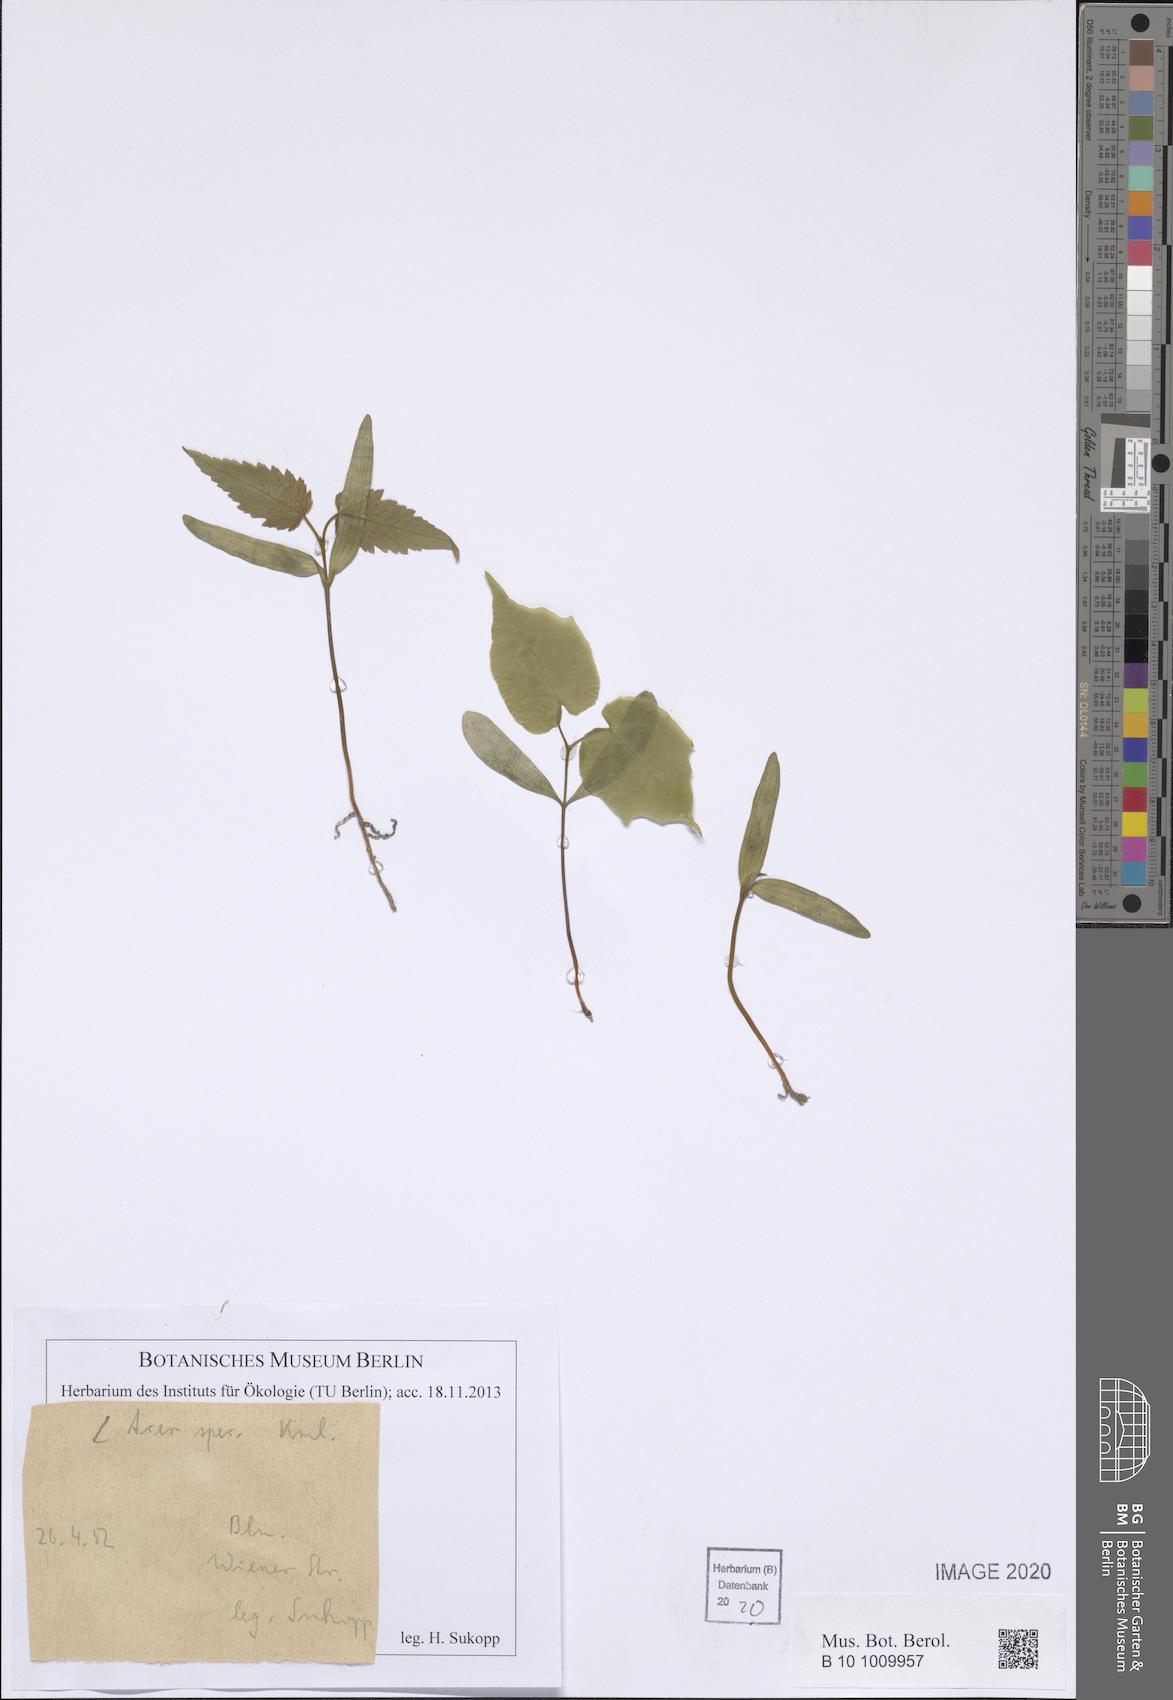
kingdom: Plantae
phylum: Tracheophyta
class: Magnoliopsida
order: Sapindales
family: Sapindaceae
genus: Acer
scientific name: Acer
